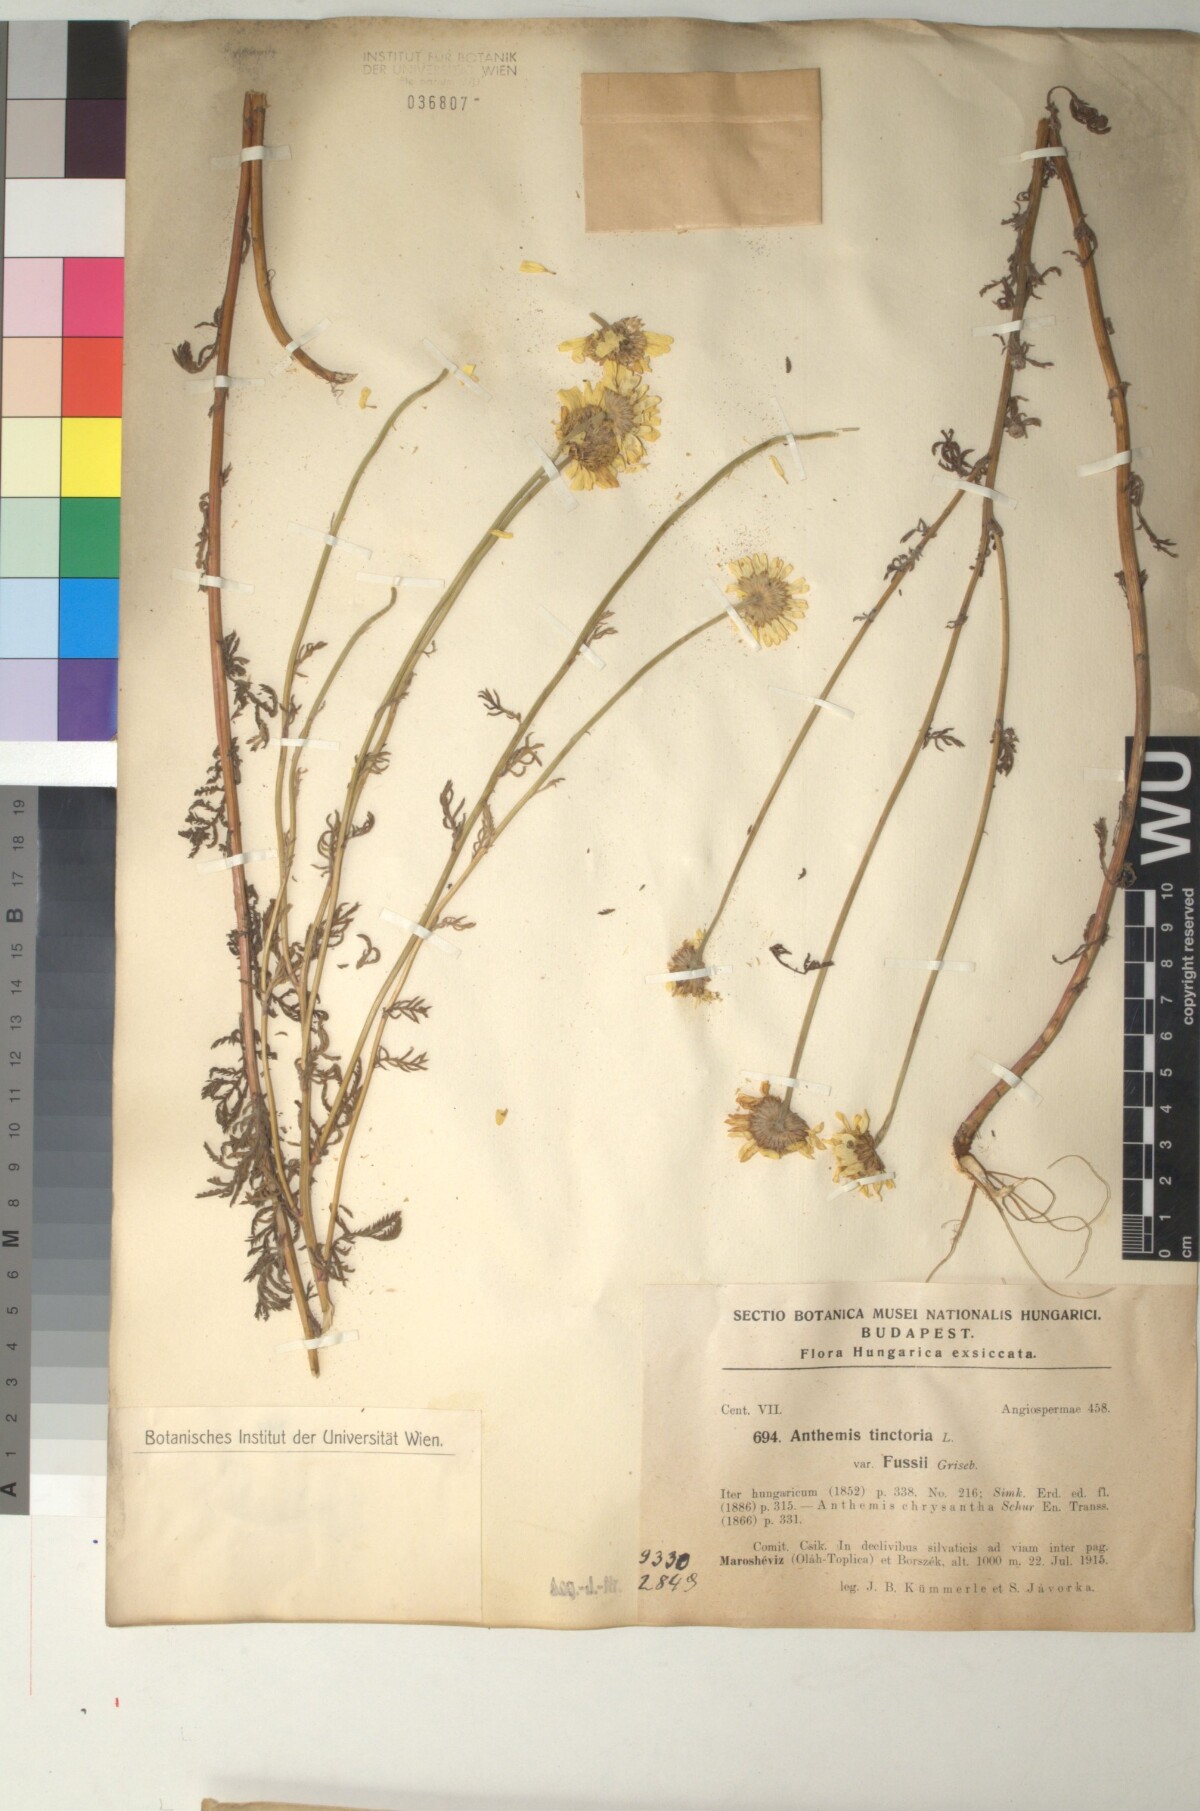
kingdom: Plantae
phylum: Tracheophyta
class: Magnoliopsida
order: Asterales
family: Asteraceae
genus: Cota
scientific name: Cota tinctoria
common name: Golden chamomile
